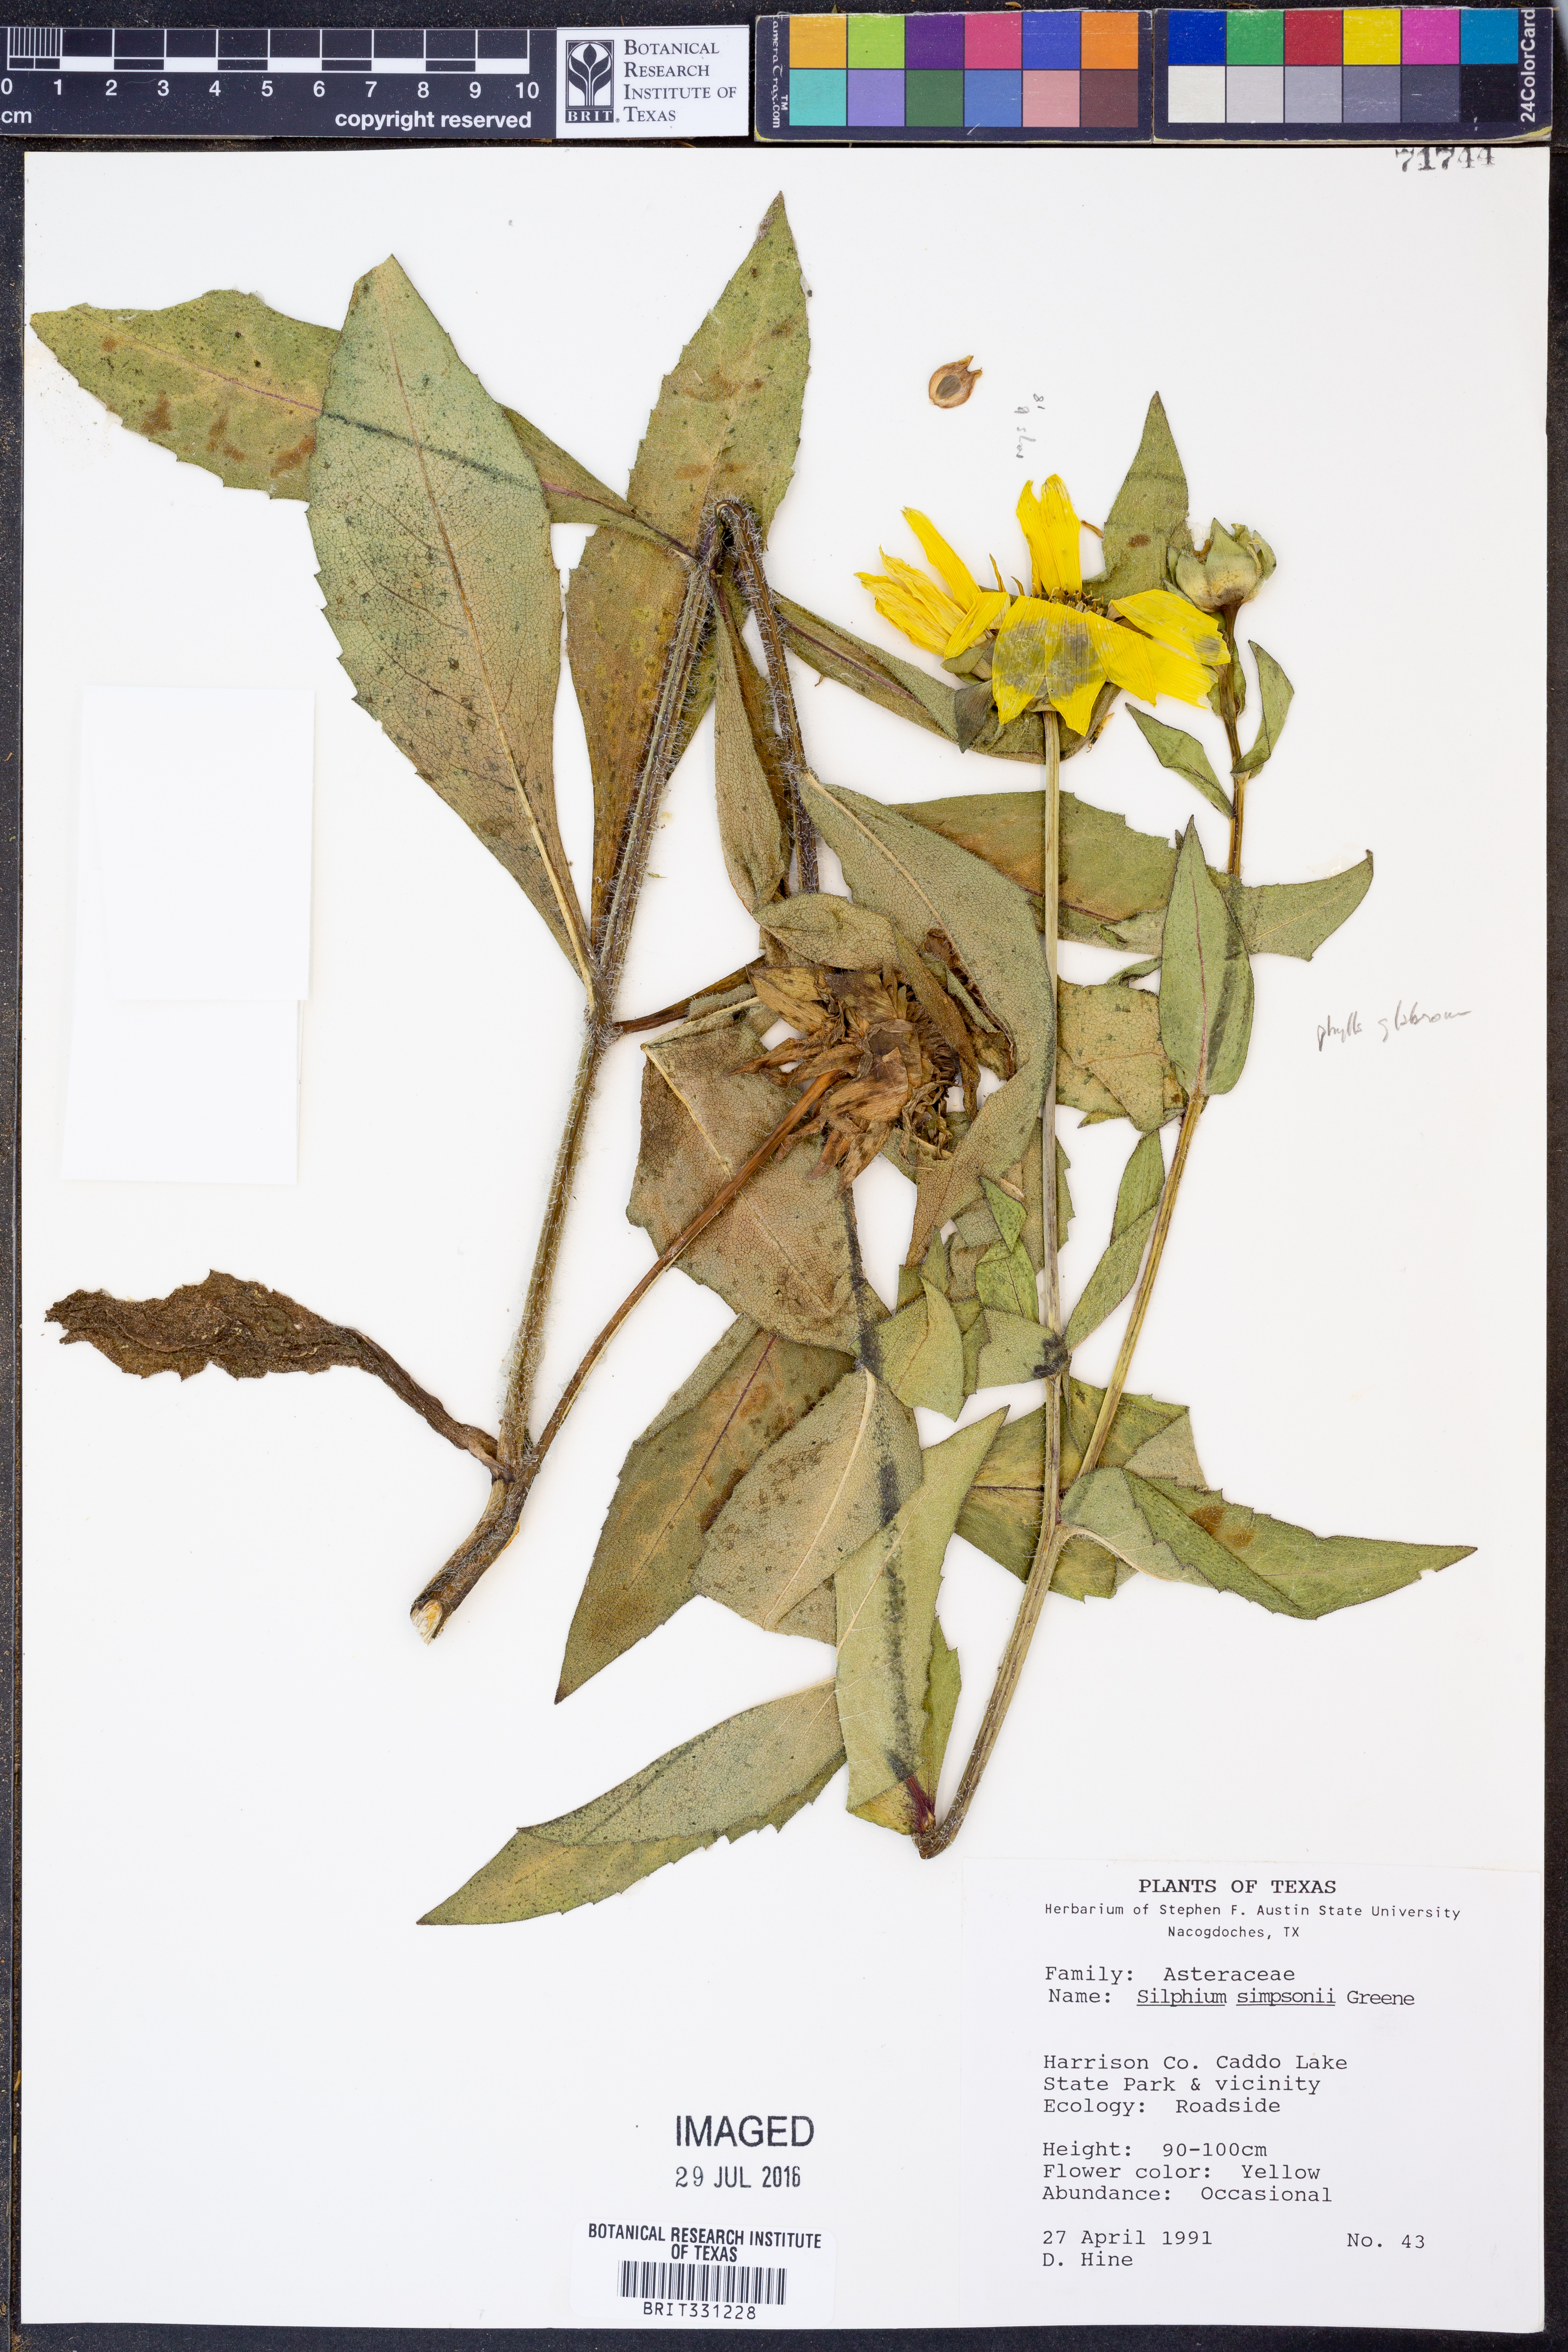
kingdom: Plantae
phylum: Tracheophyta
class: Magnoliopsida
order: Asterales
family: Asteraceae
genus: Silphium
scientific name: Silphium asteriscus
